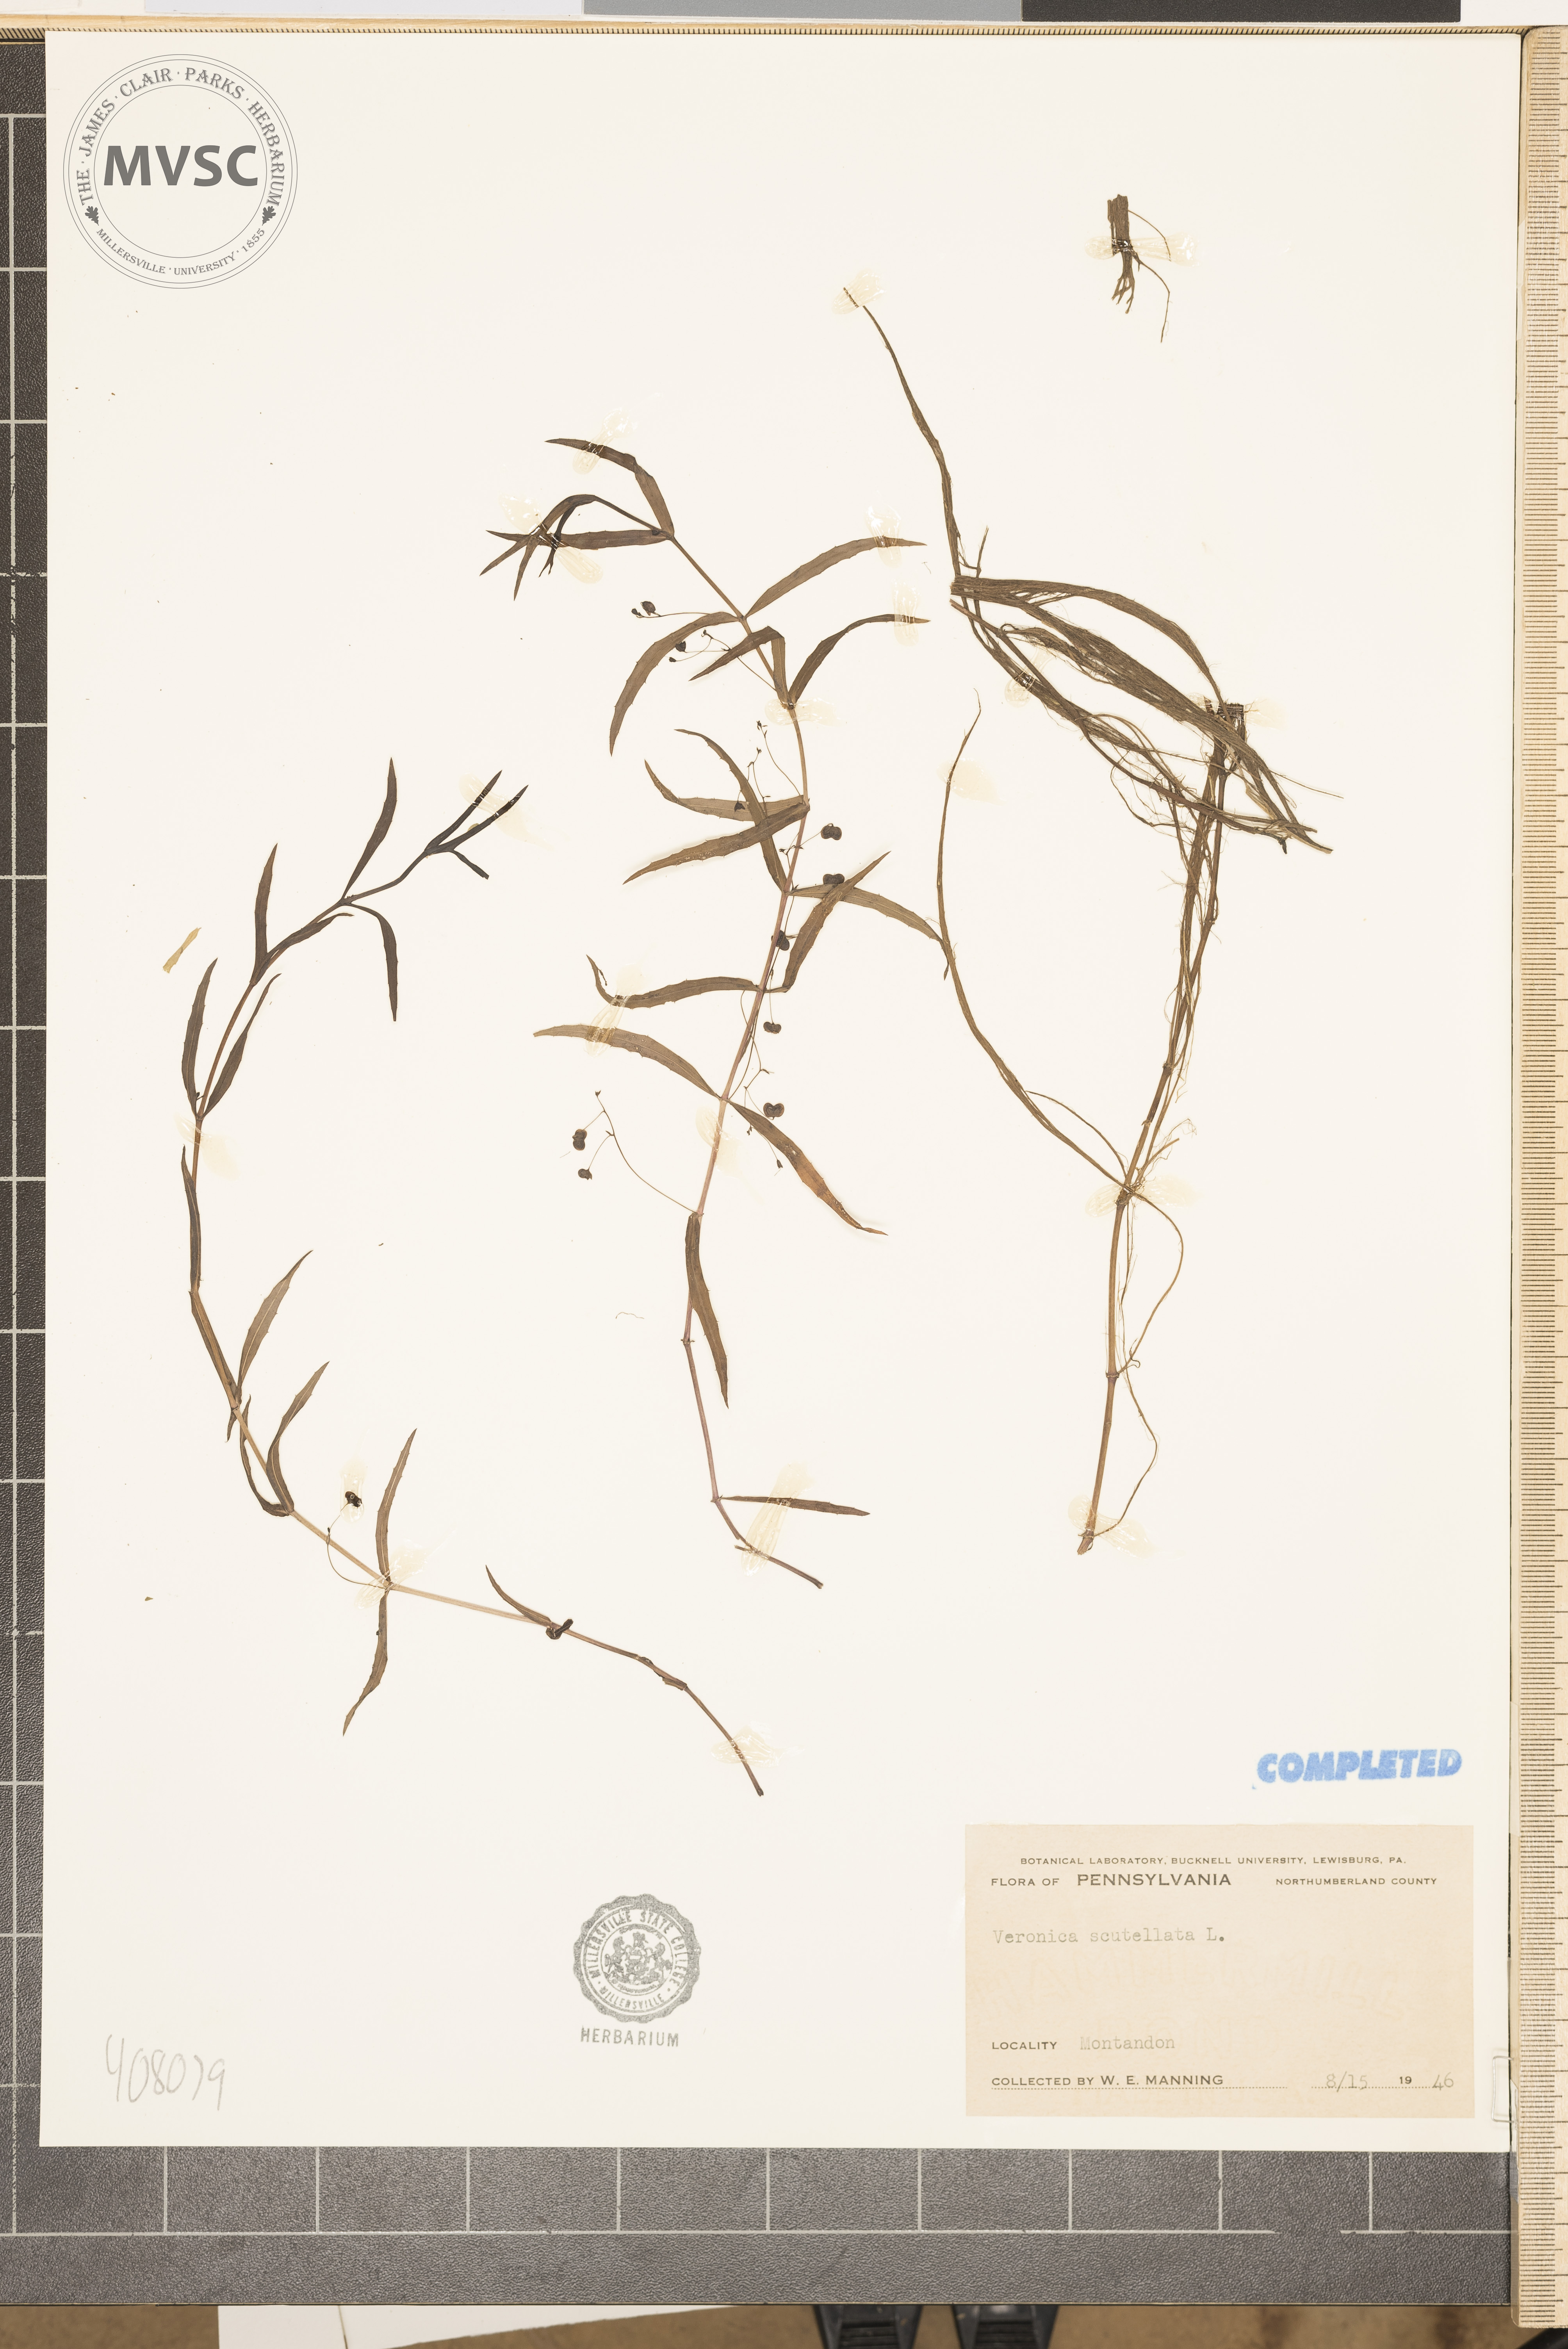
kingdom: Plantae
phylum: Tracheophyta
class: Magnoliopsida
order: Lamiales
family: Plantaginaceae
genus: Veronica
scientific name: Veronica scutellata
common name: Marsh speedwell
